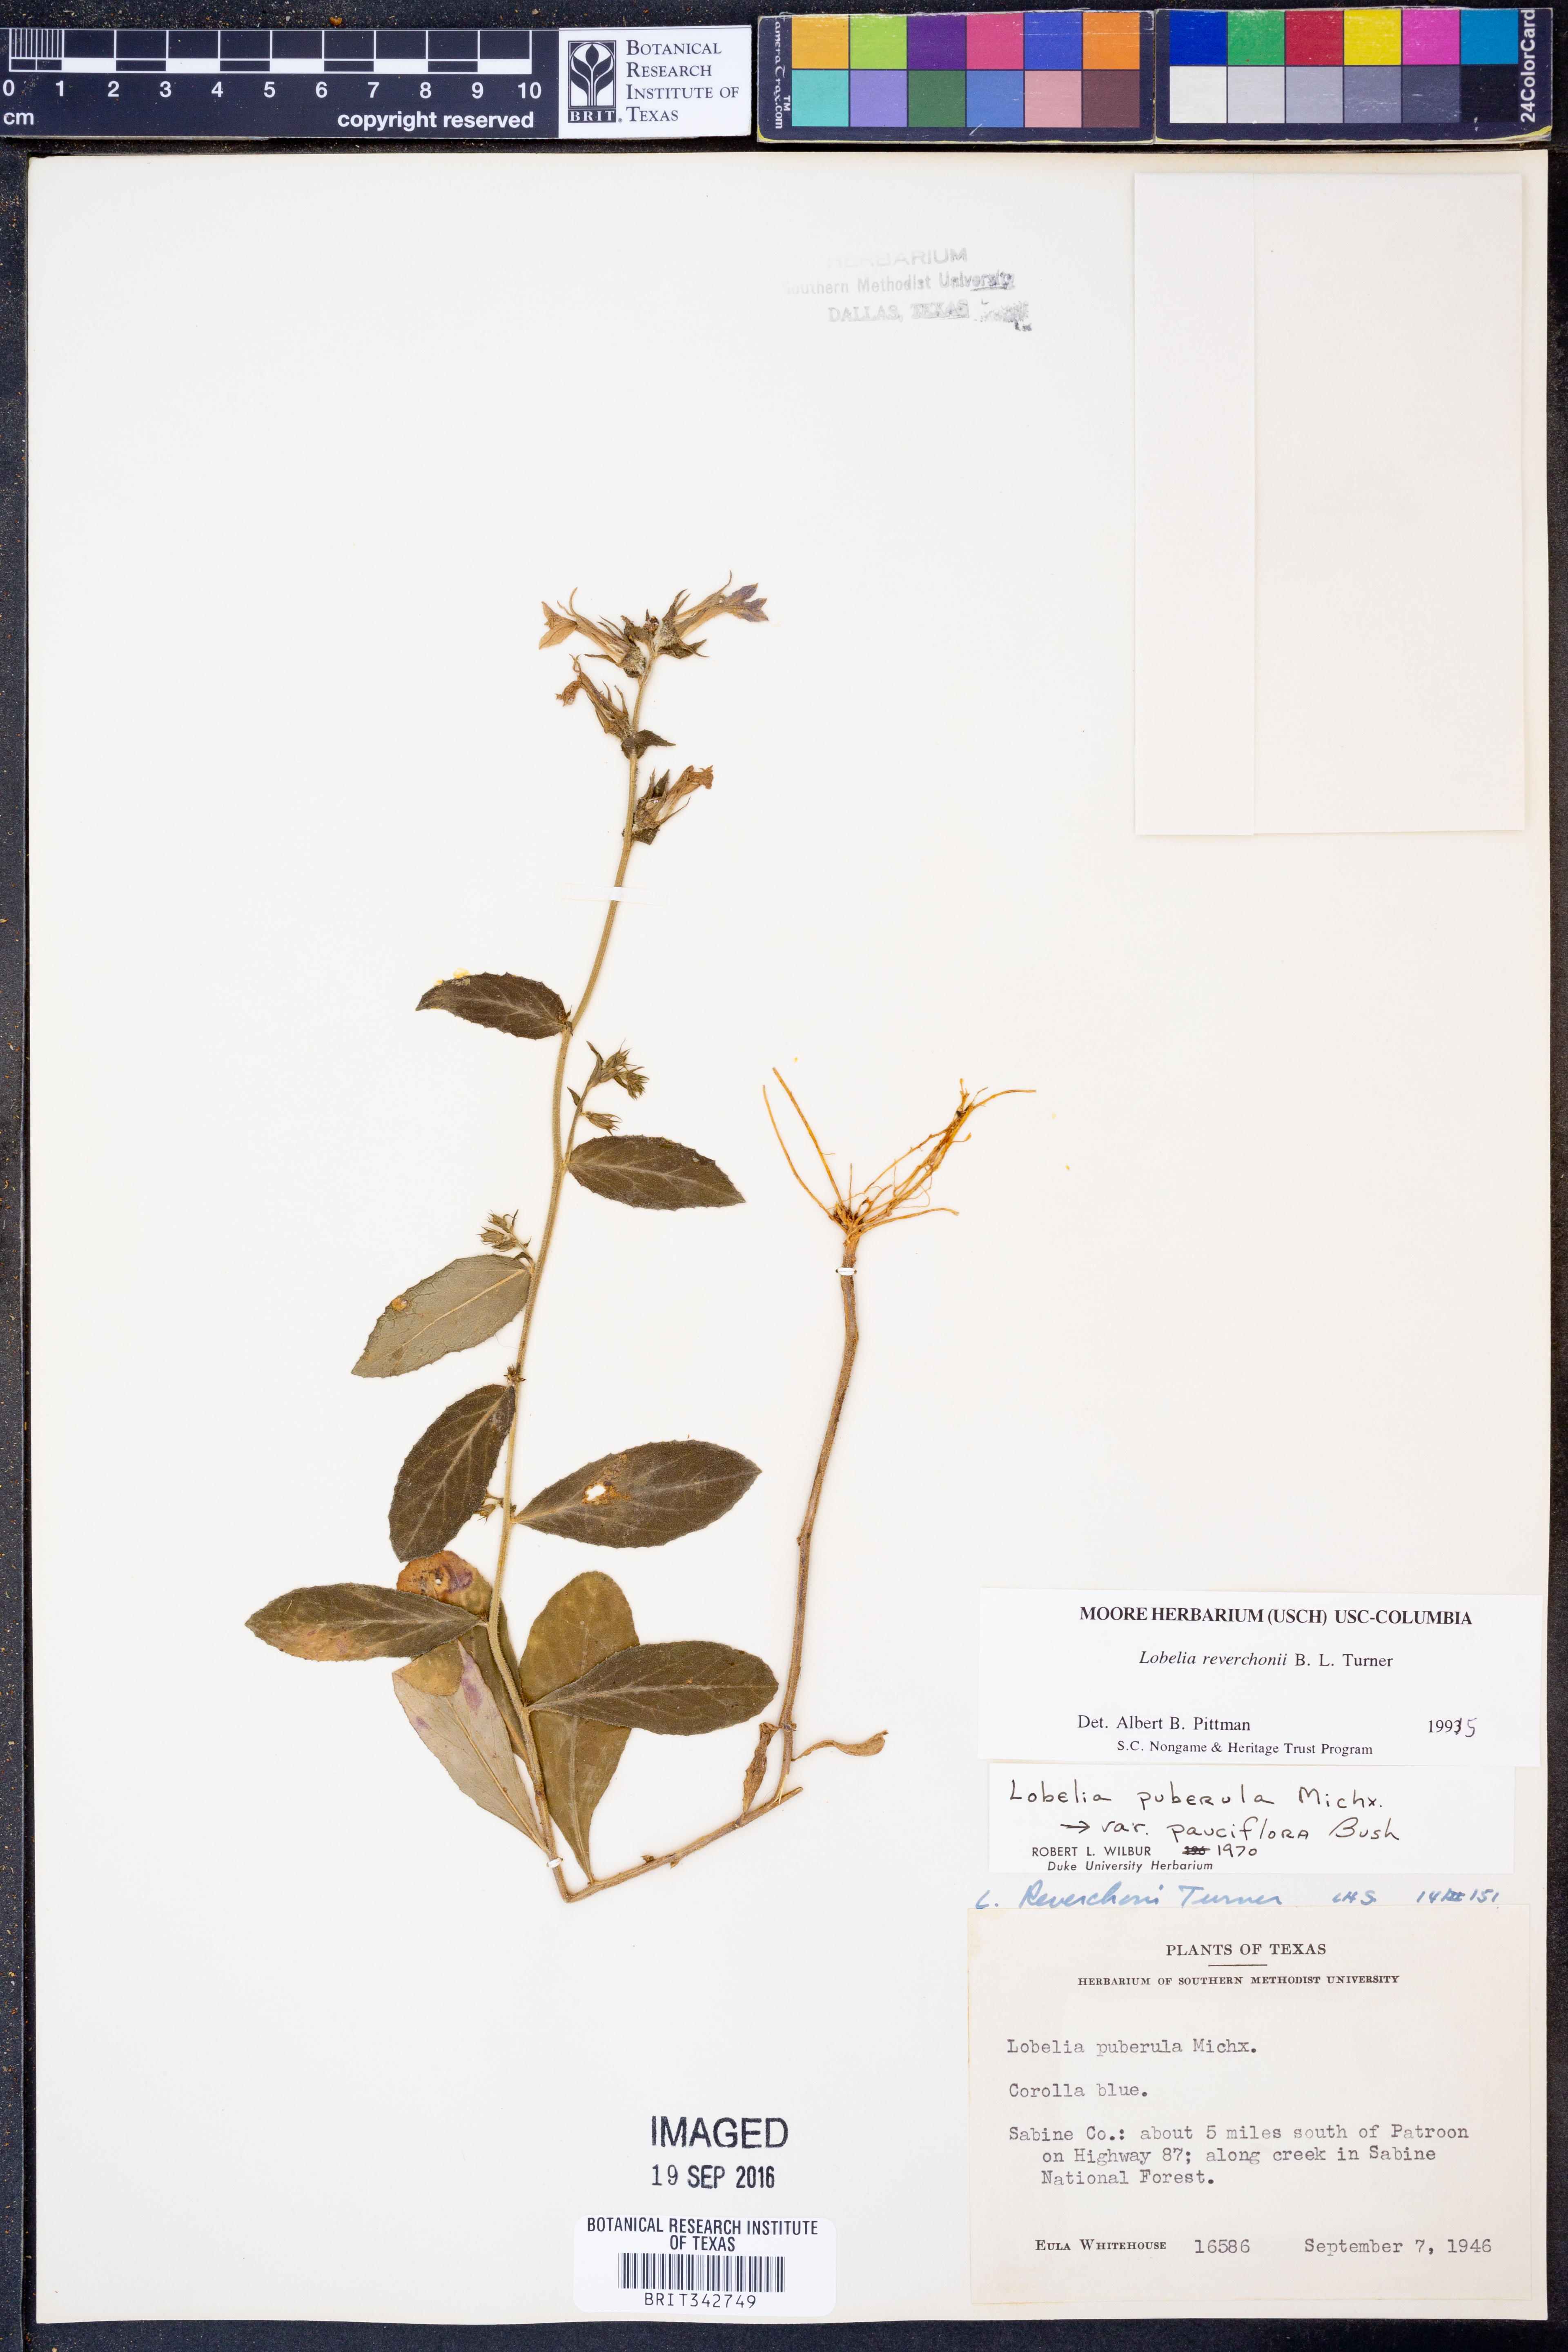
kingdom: Plantae
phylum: Tracheophyta
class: Magnoliopsida
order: Asterales
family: Campanulaceae
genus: Lobelia
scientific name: Lobelia reverchonii
